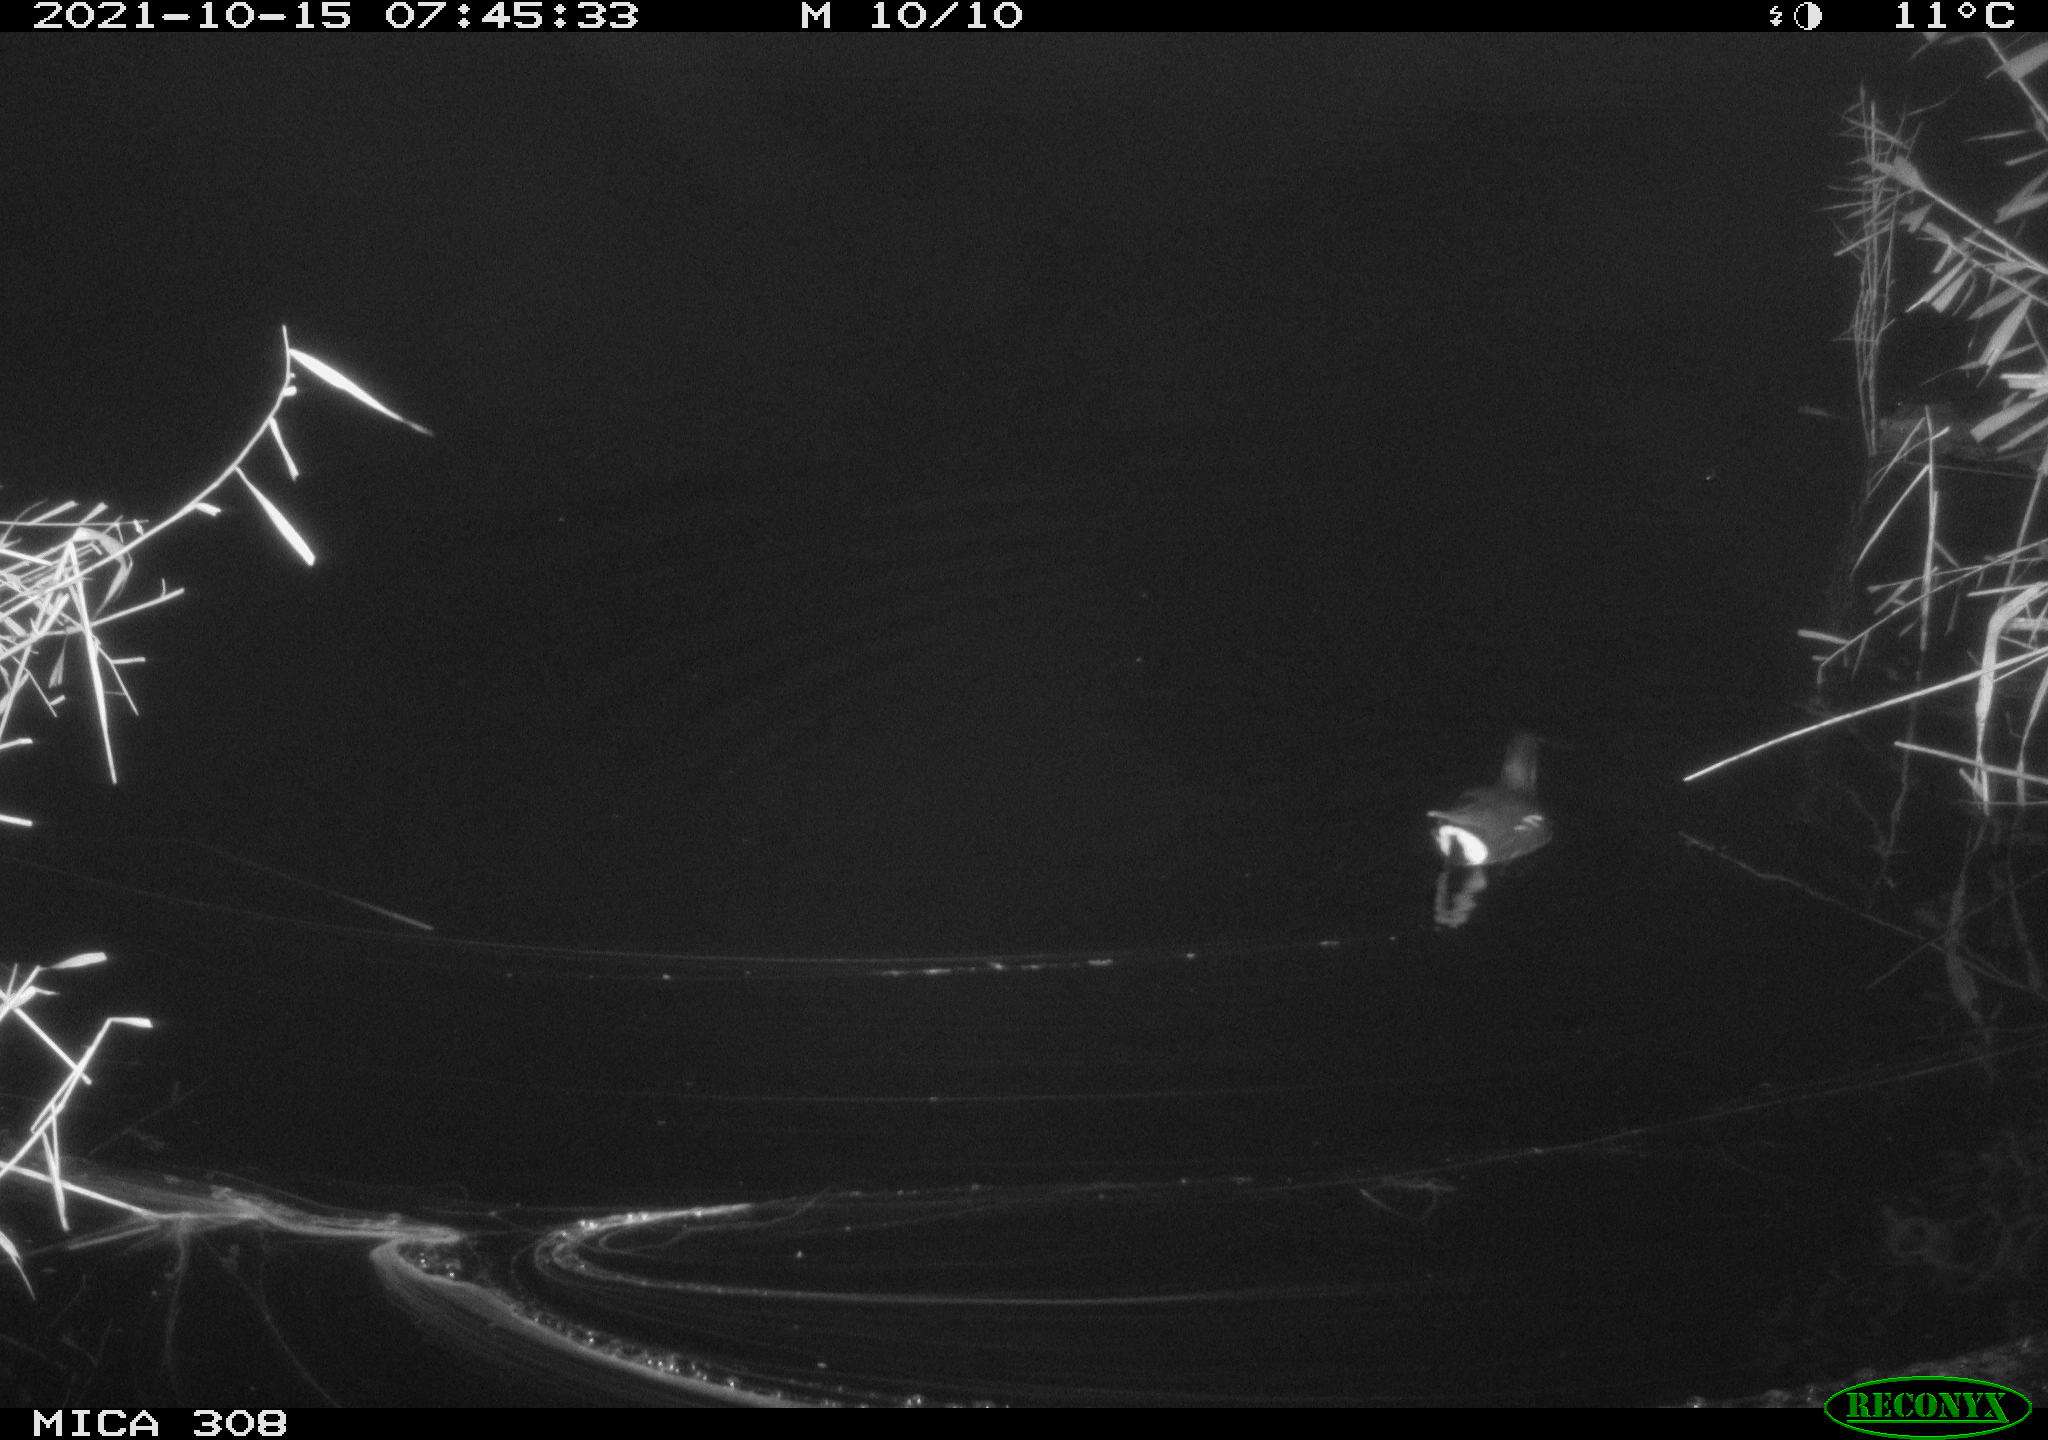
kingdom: Animalia
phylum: Chordata
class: Aves
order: Gruiformes
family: Rallidae
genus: Gallinula
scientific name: Gallinula chloropus
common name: Common moorhen
